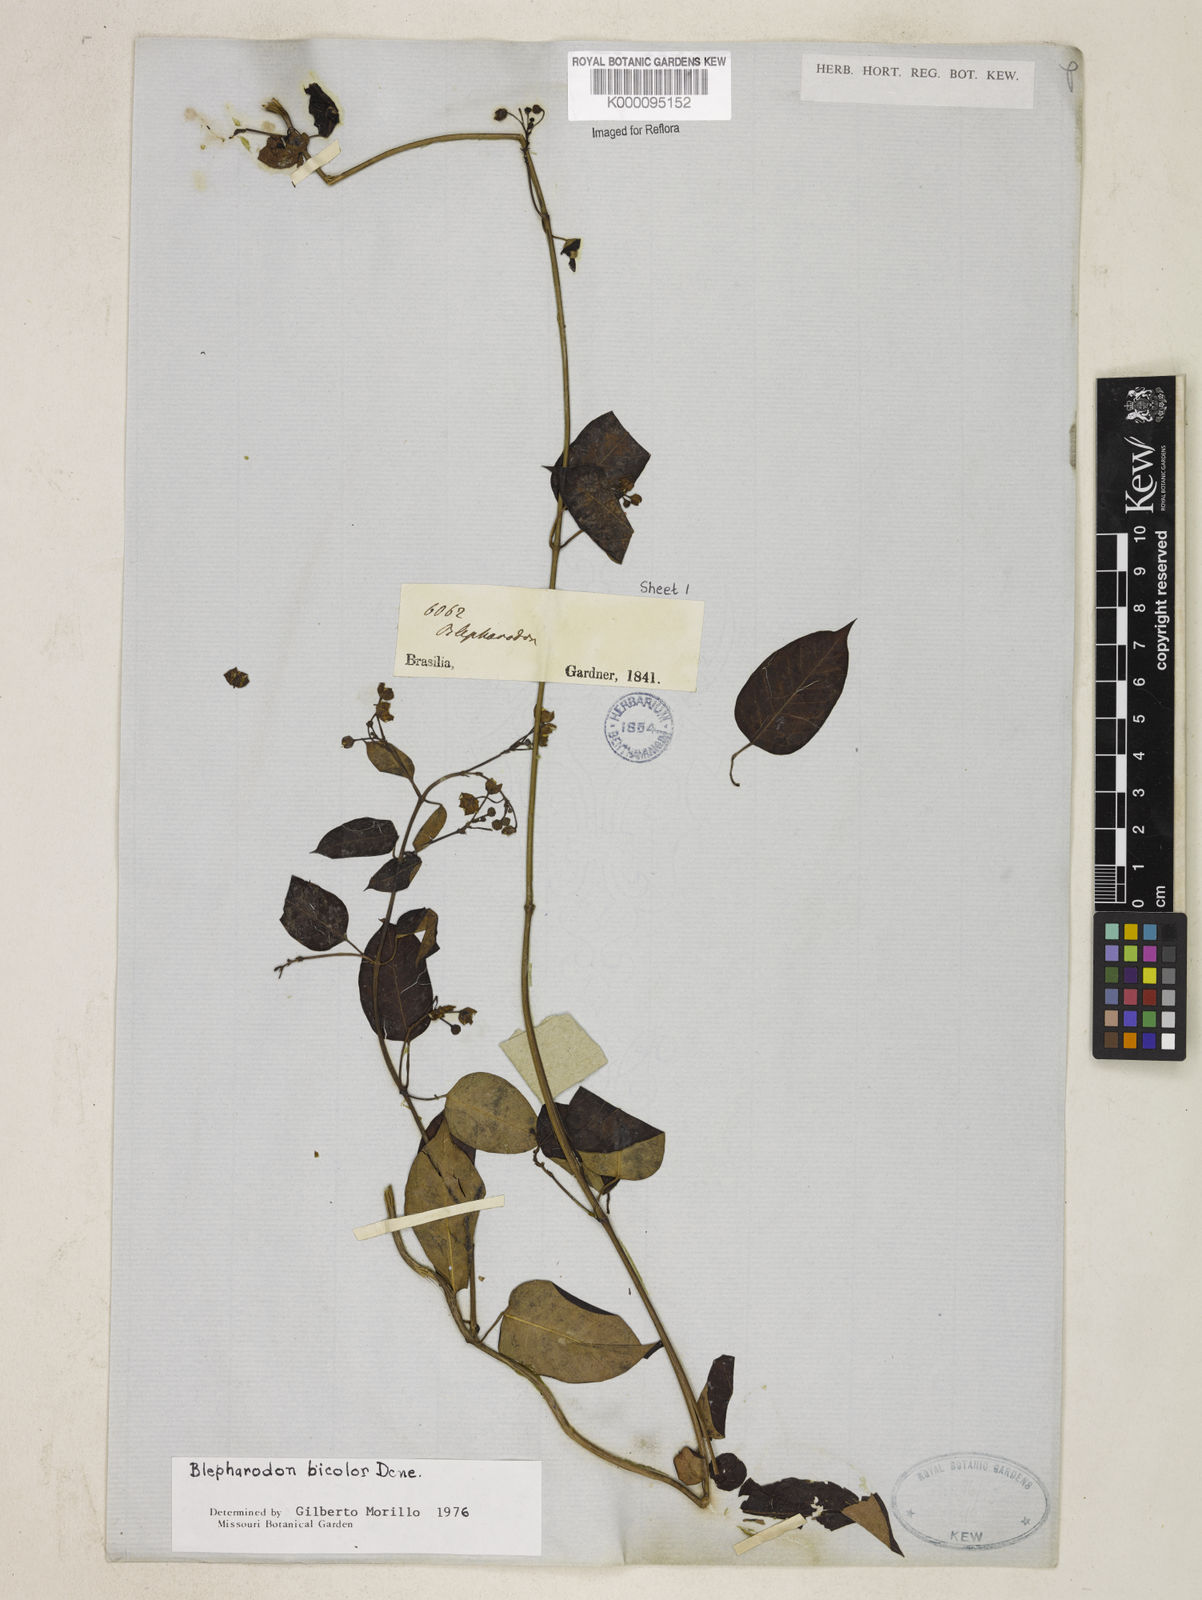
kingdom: Plantae
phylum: Tracheophyta
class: Magnoliopsida
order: Gentianales
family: Apocynaceae
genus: Blepharodon
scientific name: Blepharodon bicolor
